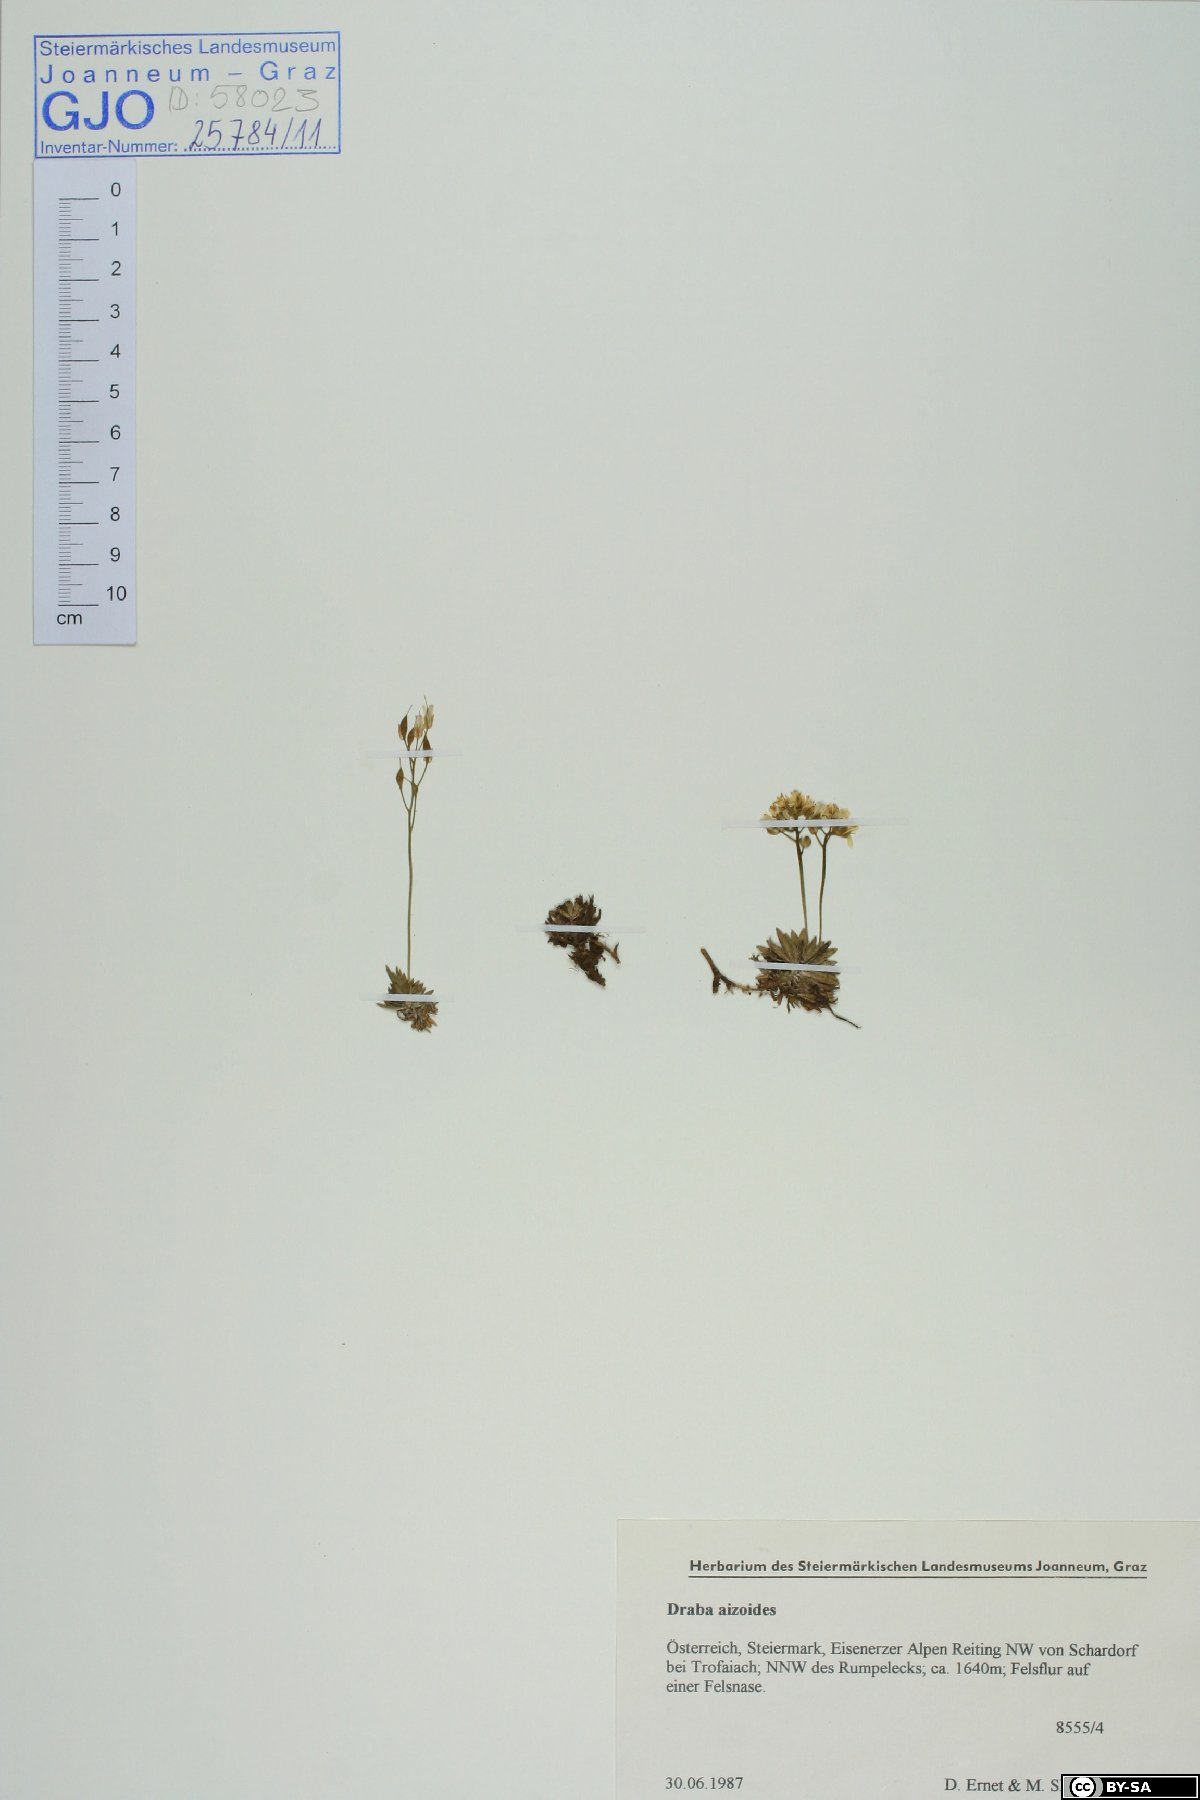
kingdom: Plantae
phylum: Tracheophyta
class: Magnoliopsida
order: Brassicales
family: Brassicaceae
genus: Draba
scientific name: Draba aizoides
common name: Yellow whitlowgrass
